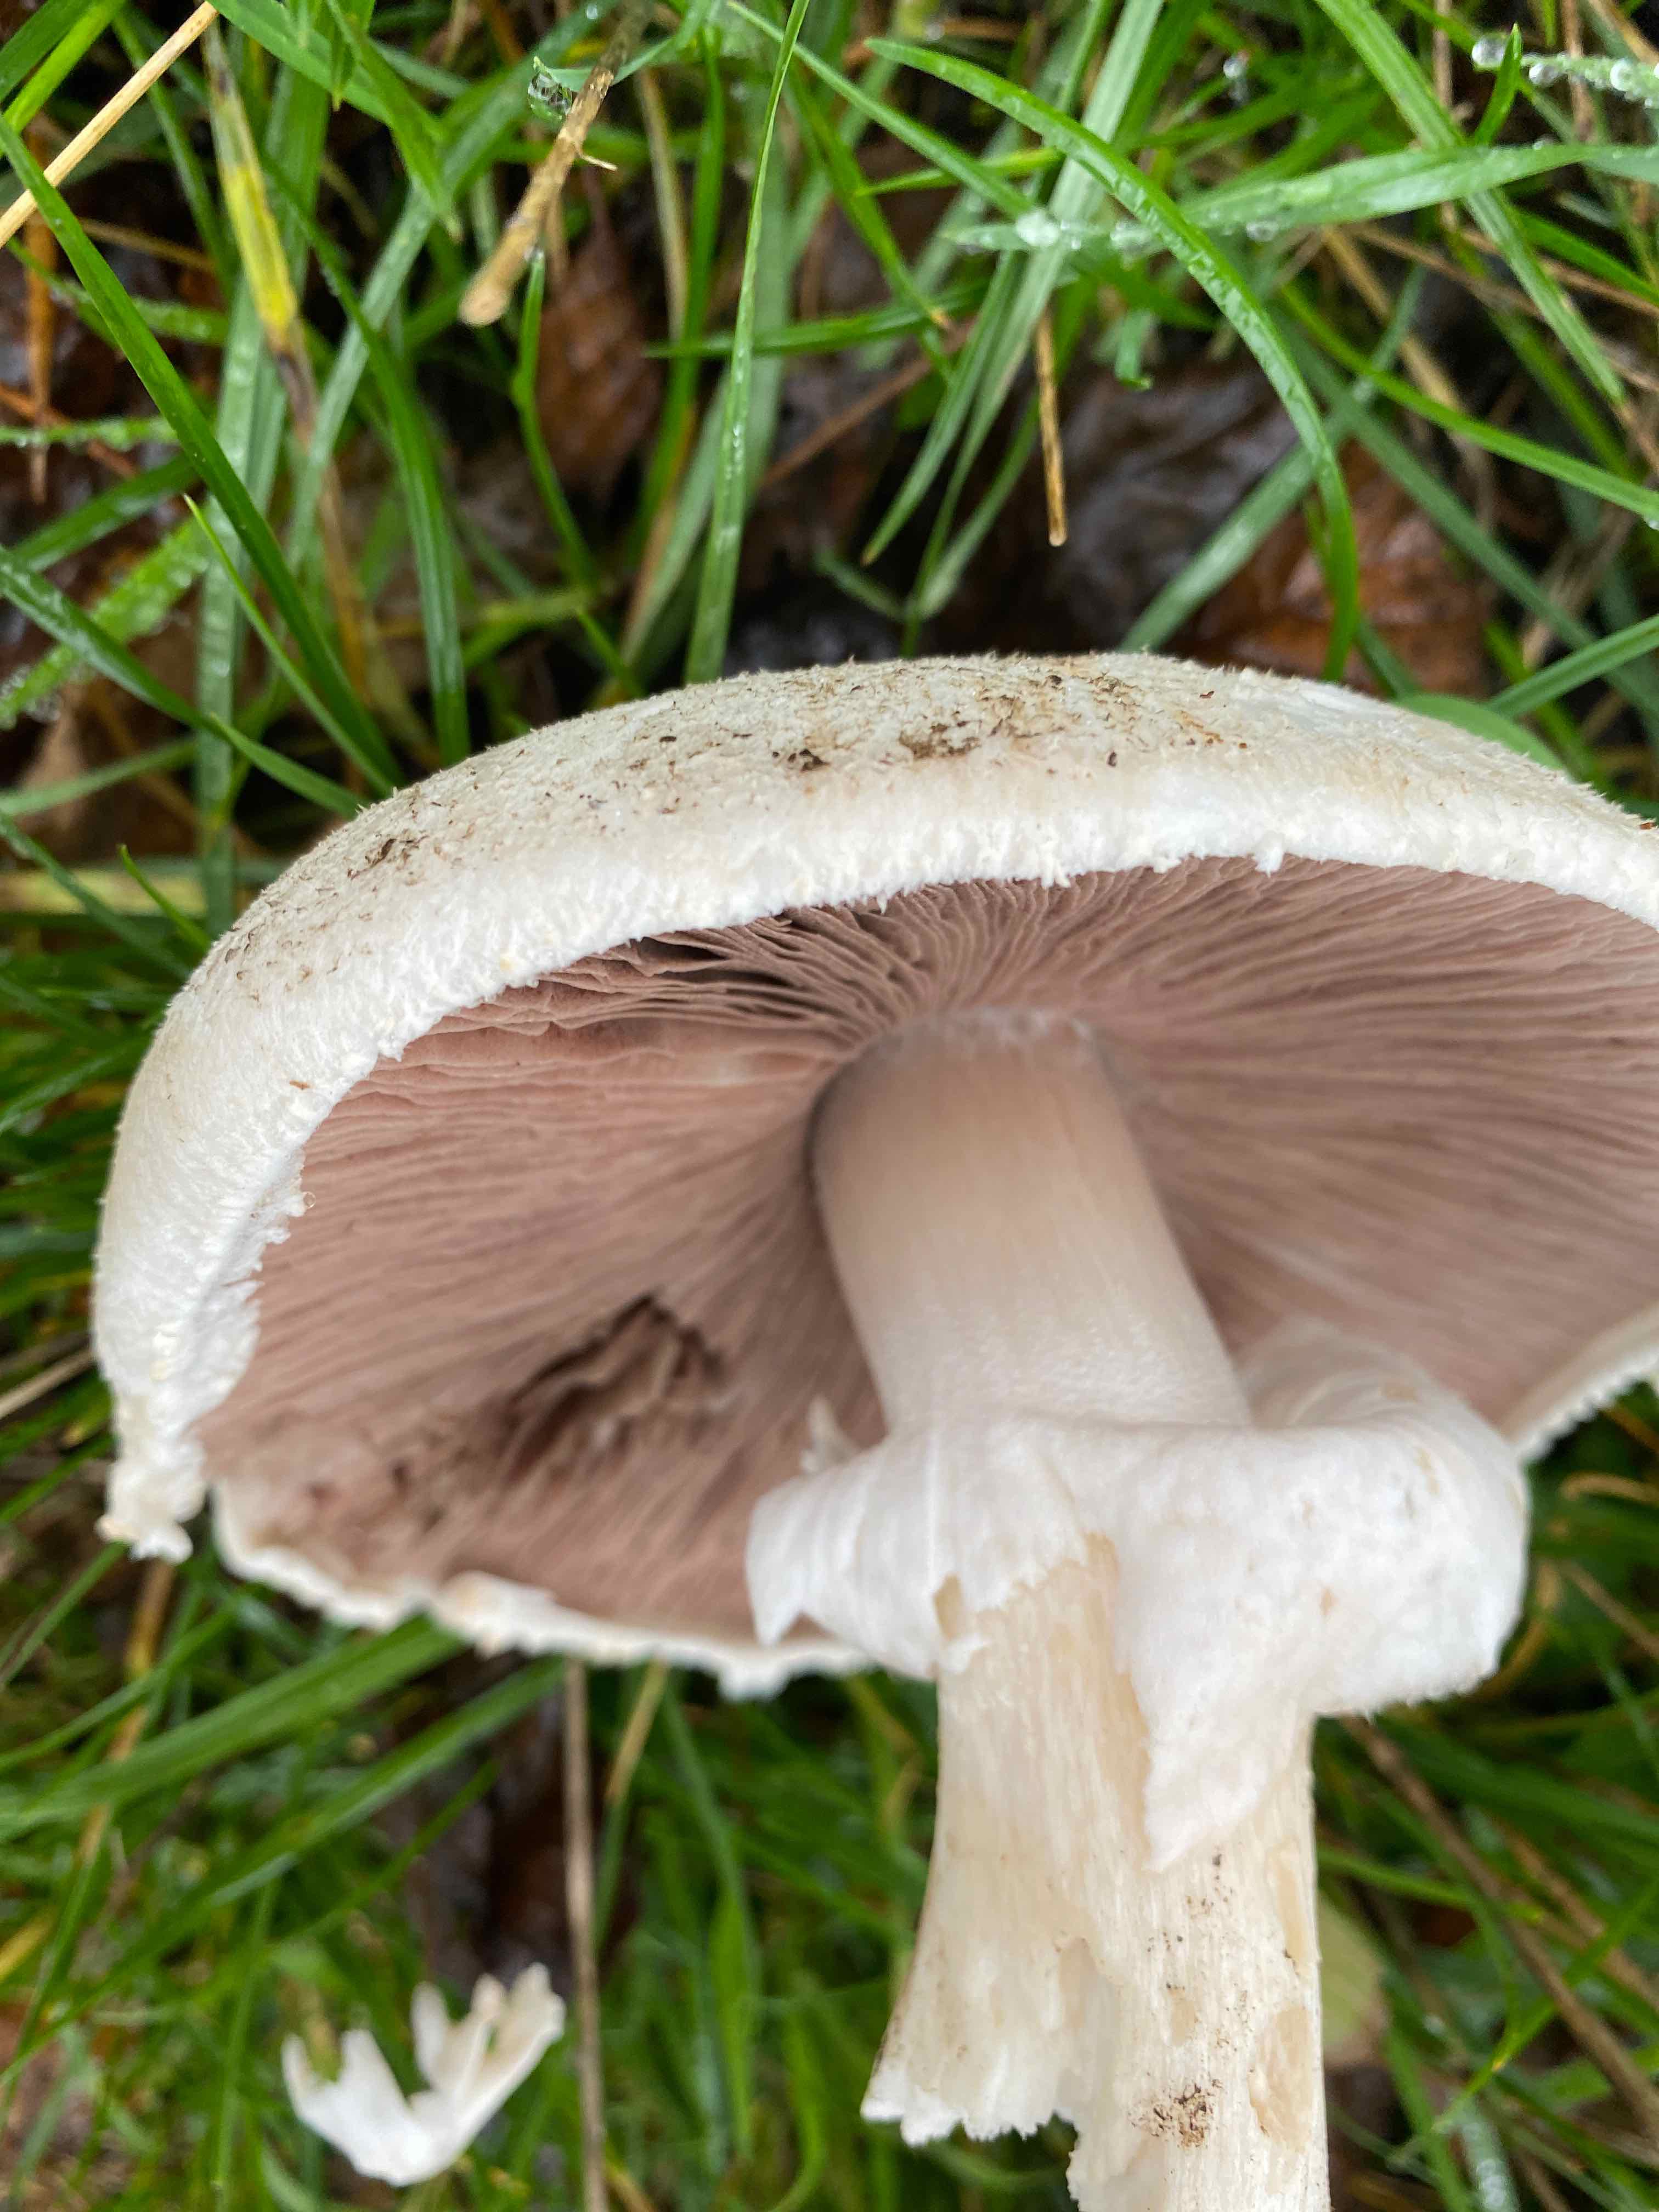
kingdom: Fungi
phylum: Basidiomycota
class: Agaricomycetes
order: Agaricales
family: Agaricaceae
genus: Agaricus
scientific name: Agaricus campestris
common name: mark-champignon
